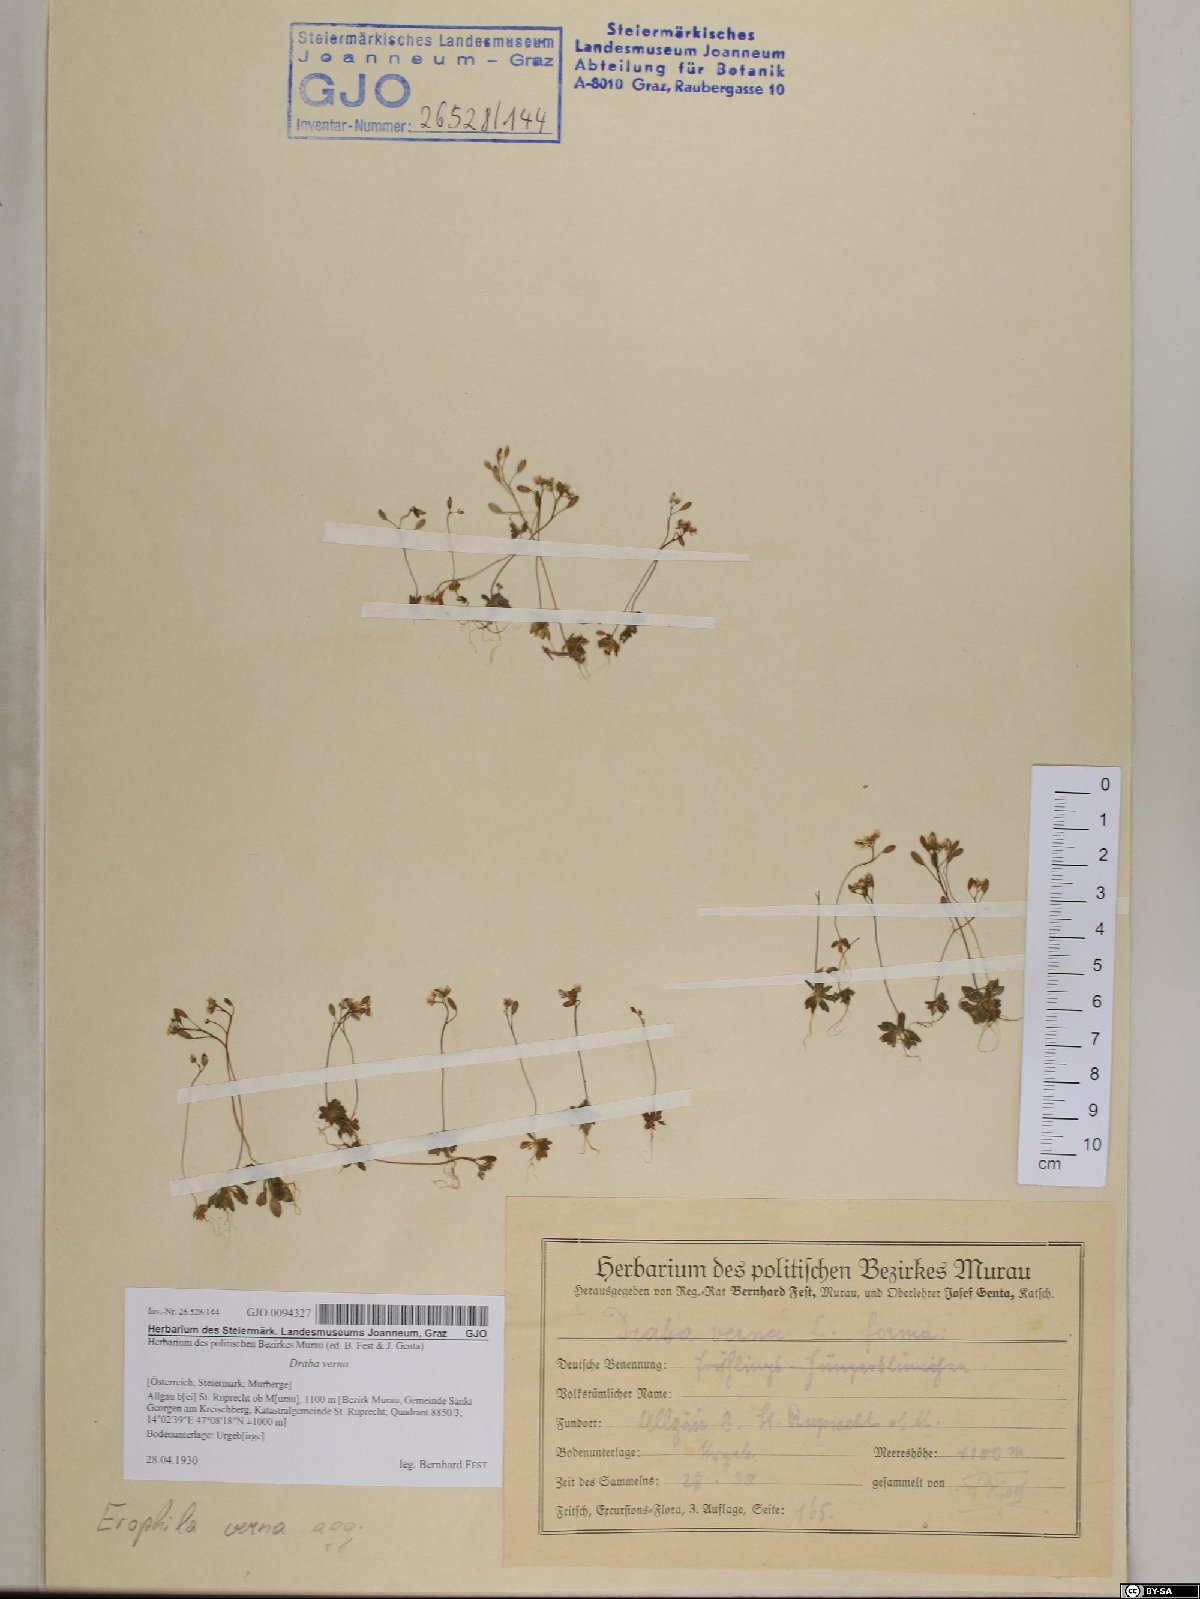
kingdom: Plantae
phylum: Tracheophyta
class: Magnoliopsida
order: Brassicales
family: Brassicaceae
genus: Draba
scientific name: Draba verna
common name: Spring draba
